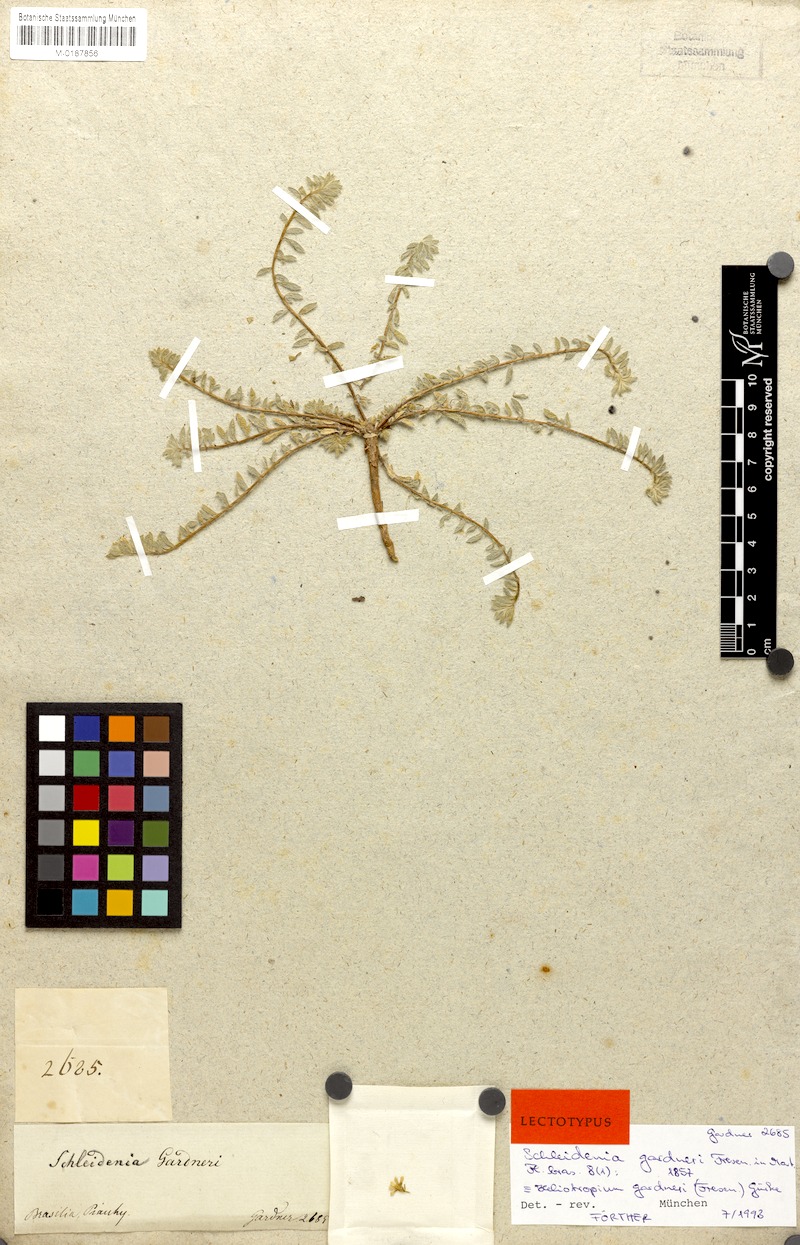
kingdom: Plantae
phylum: Tracheophyta
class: Magnoliopsida
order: Boraginales
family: Heliotropiaceae
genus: Euploca
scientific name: Euploca paradoxa
